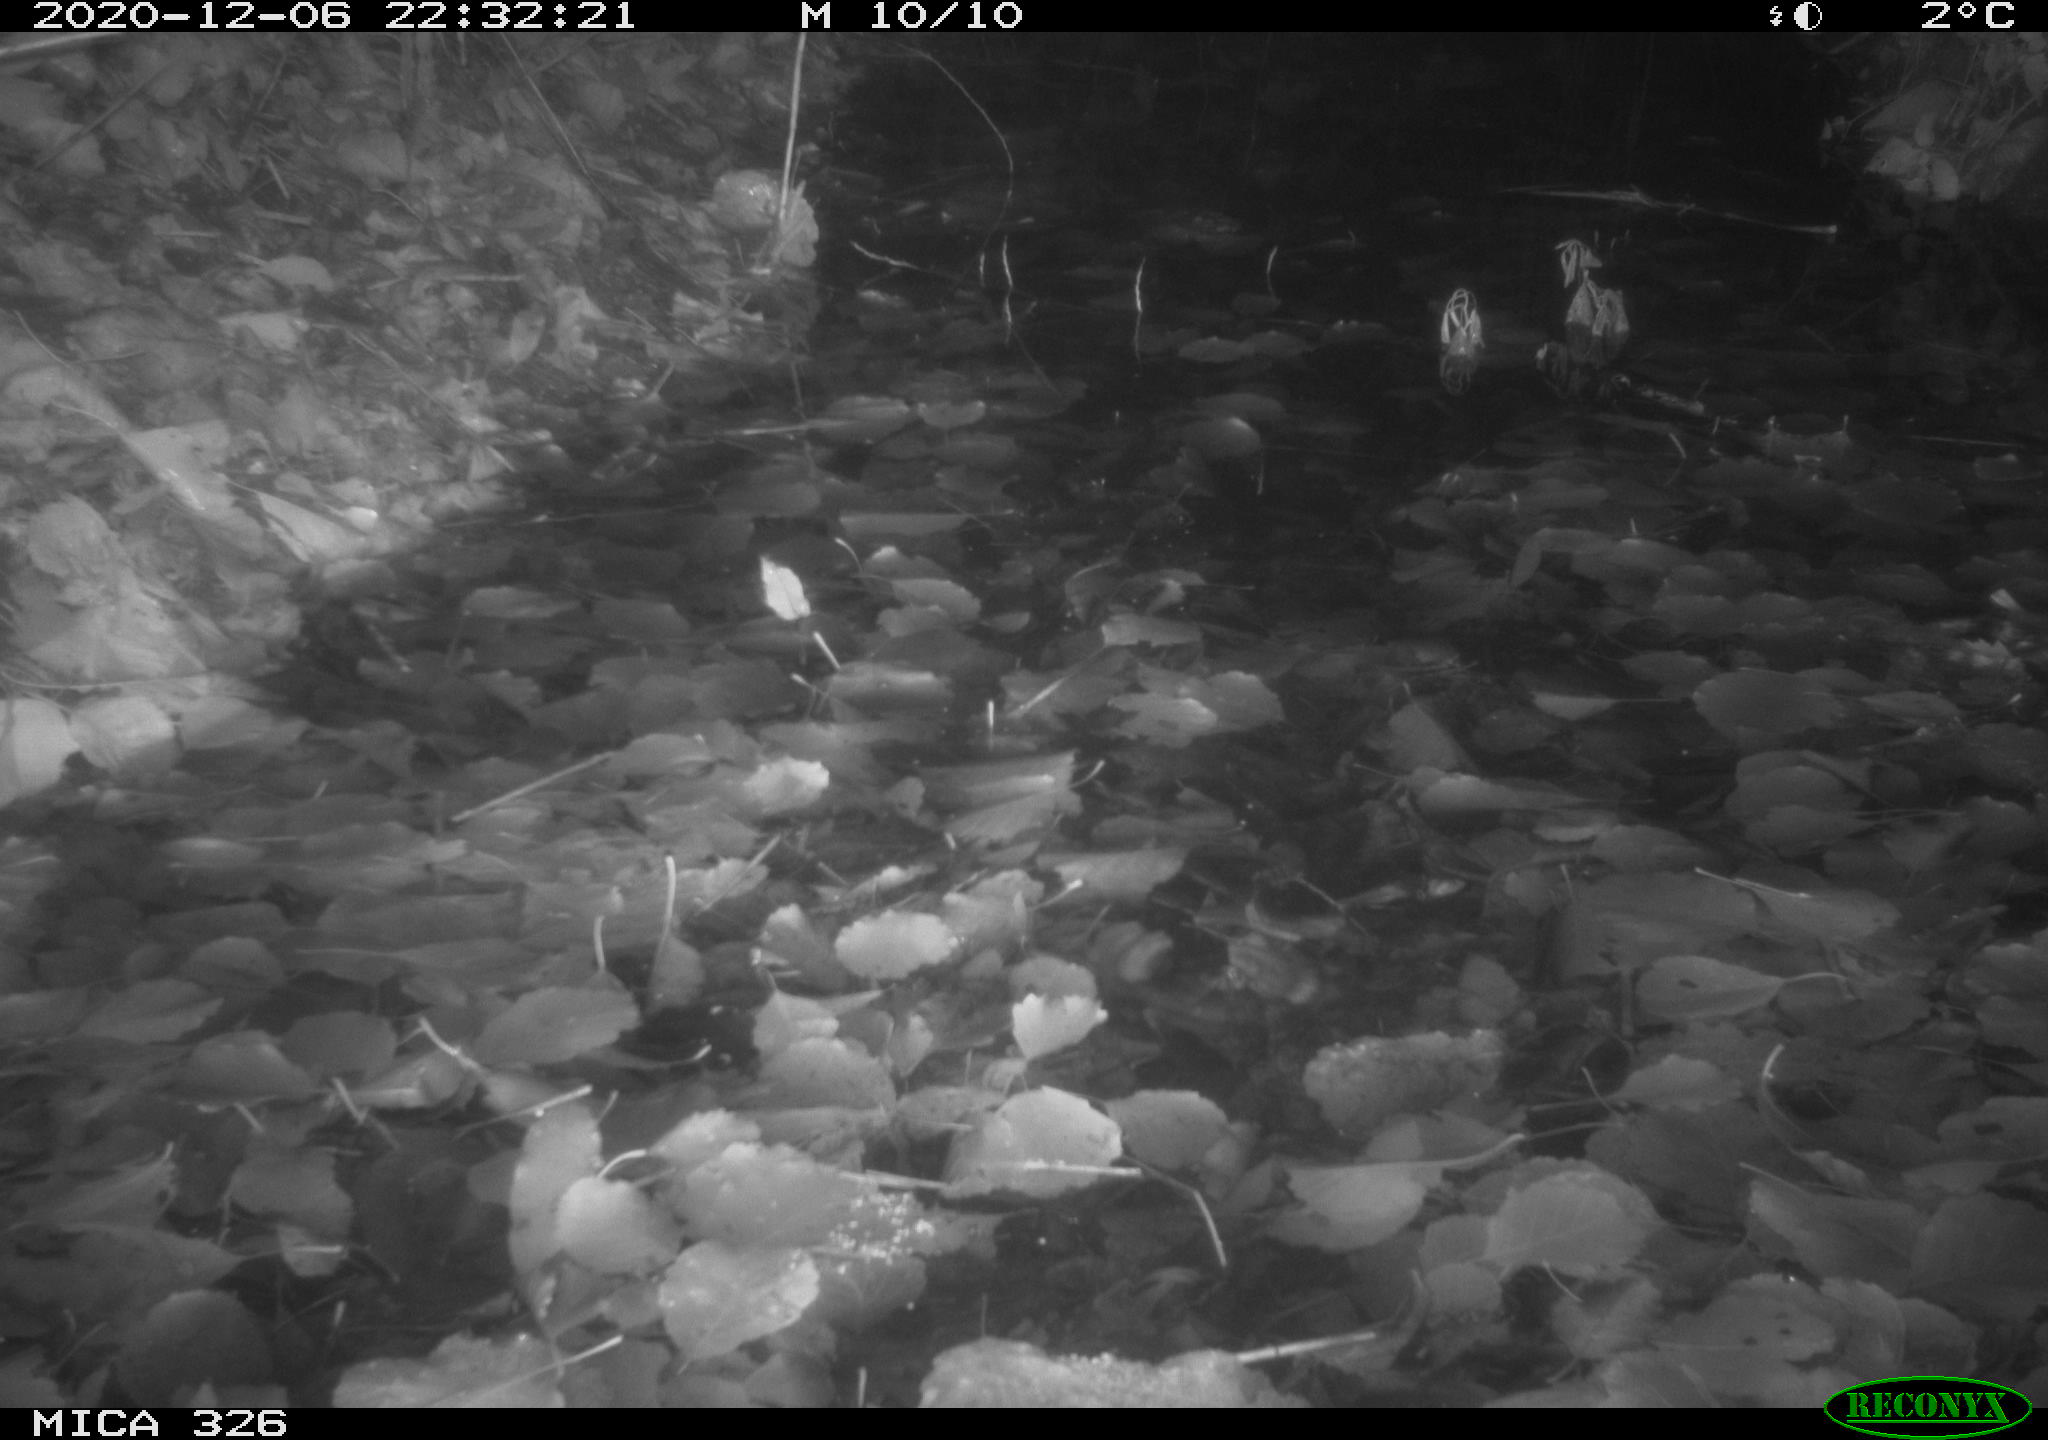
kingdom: Animalia
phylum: Chordata
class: Mammalia
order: Rodentia
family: Muridae
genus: Rattus
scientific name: Rattus norvegicus
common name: Brown rat
